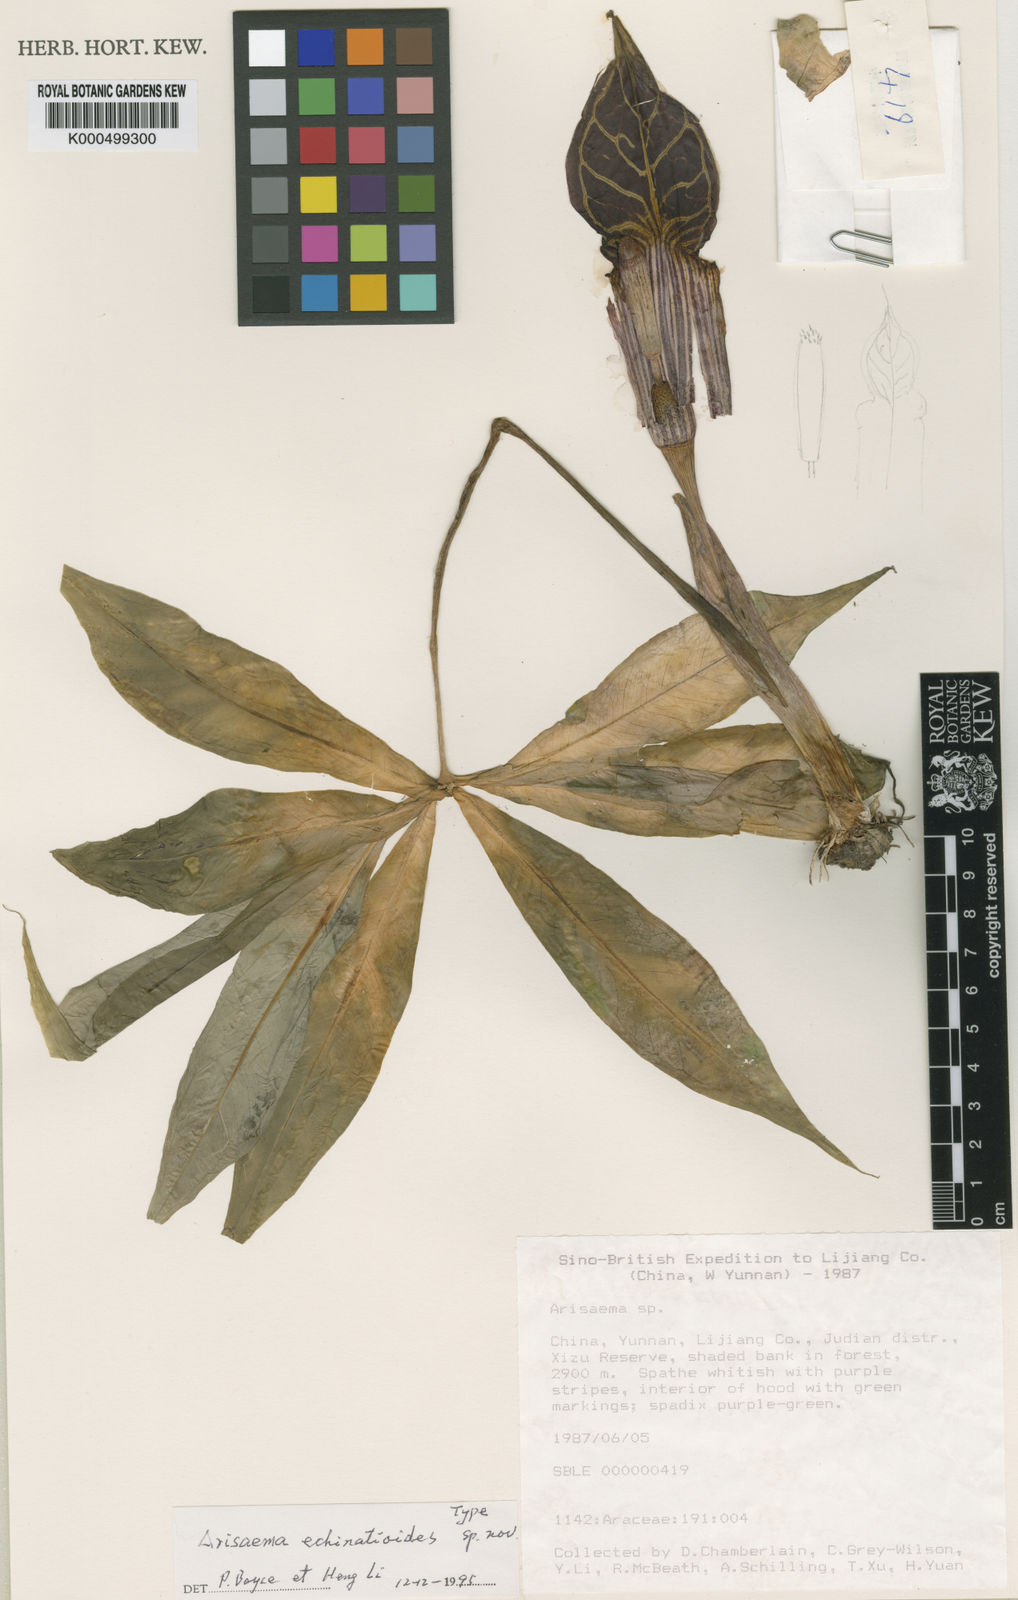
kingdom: Plantae
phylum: Tracheophyta
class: Liliopsida
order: Alismatales
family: Araceae
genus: Arisaema
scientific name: Arisaema
